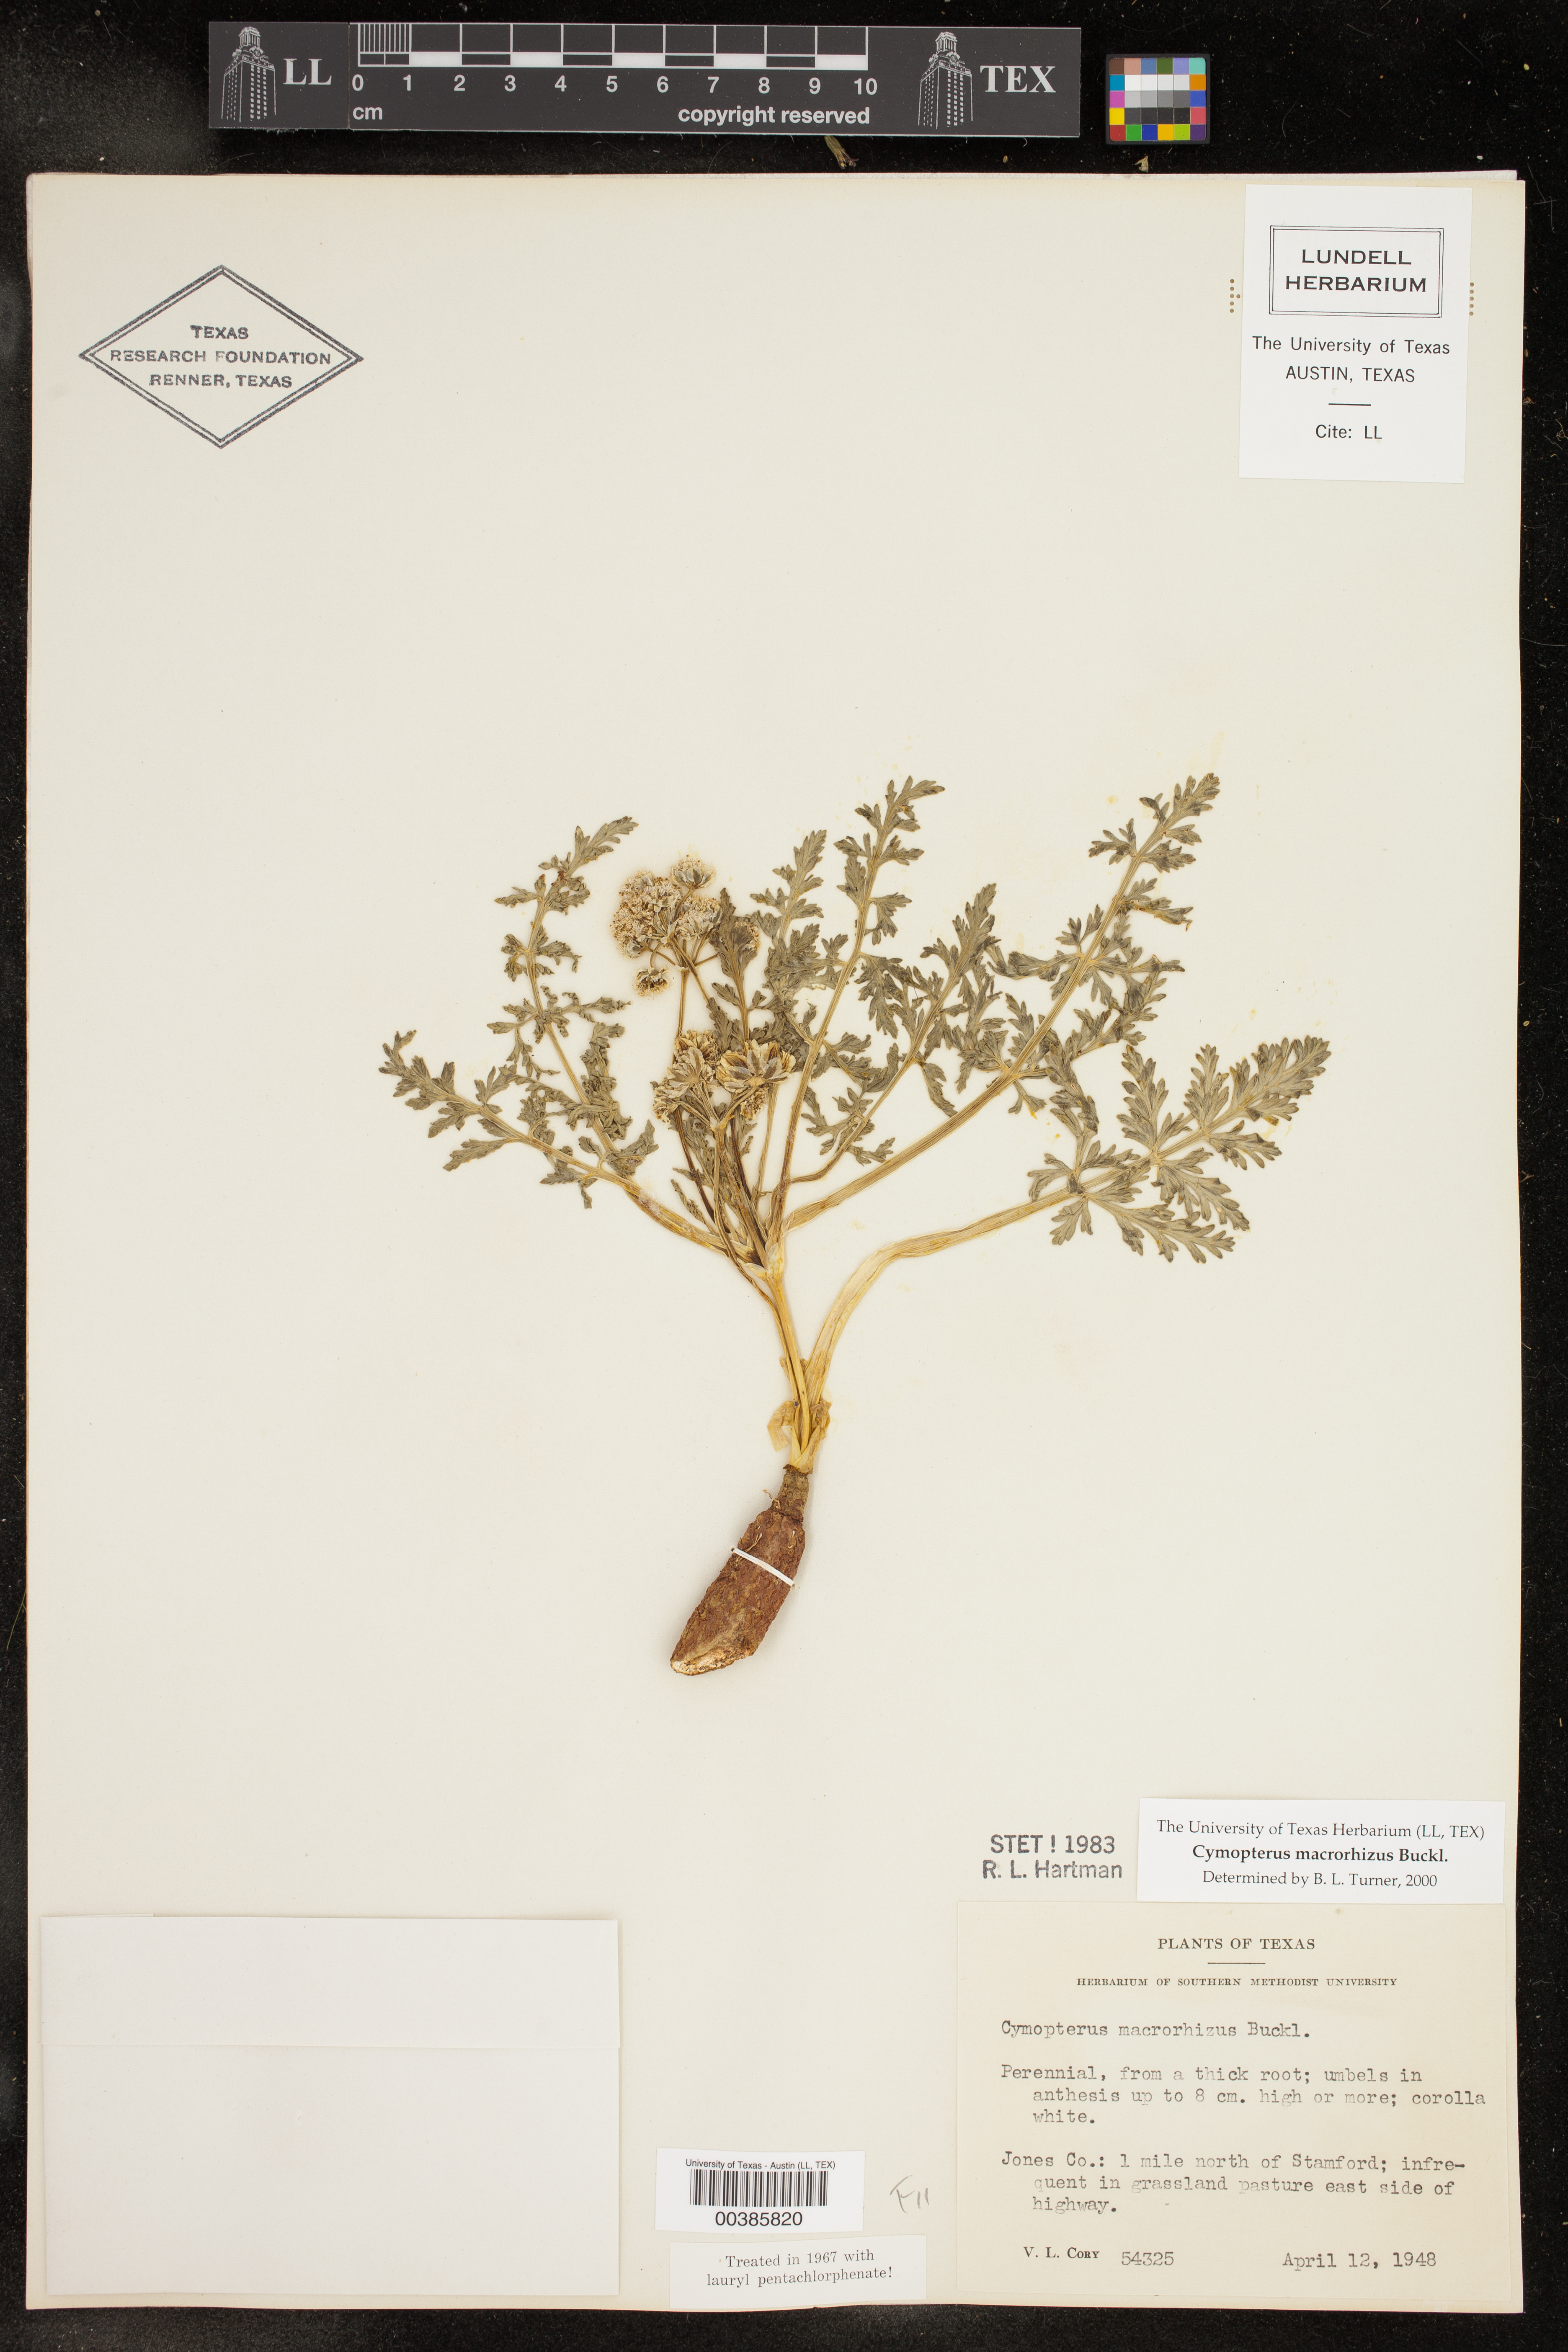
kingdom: Plantae
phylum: Tracheophyta
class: Magnoliopsida
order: Apiales
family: Apiaceae
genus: Vesper
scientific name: Vesper macrorhizus
